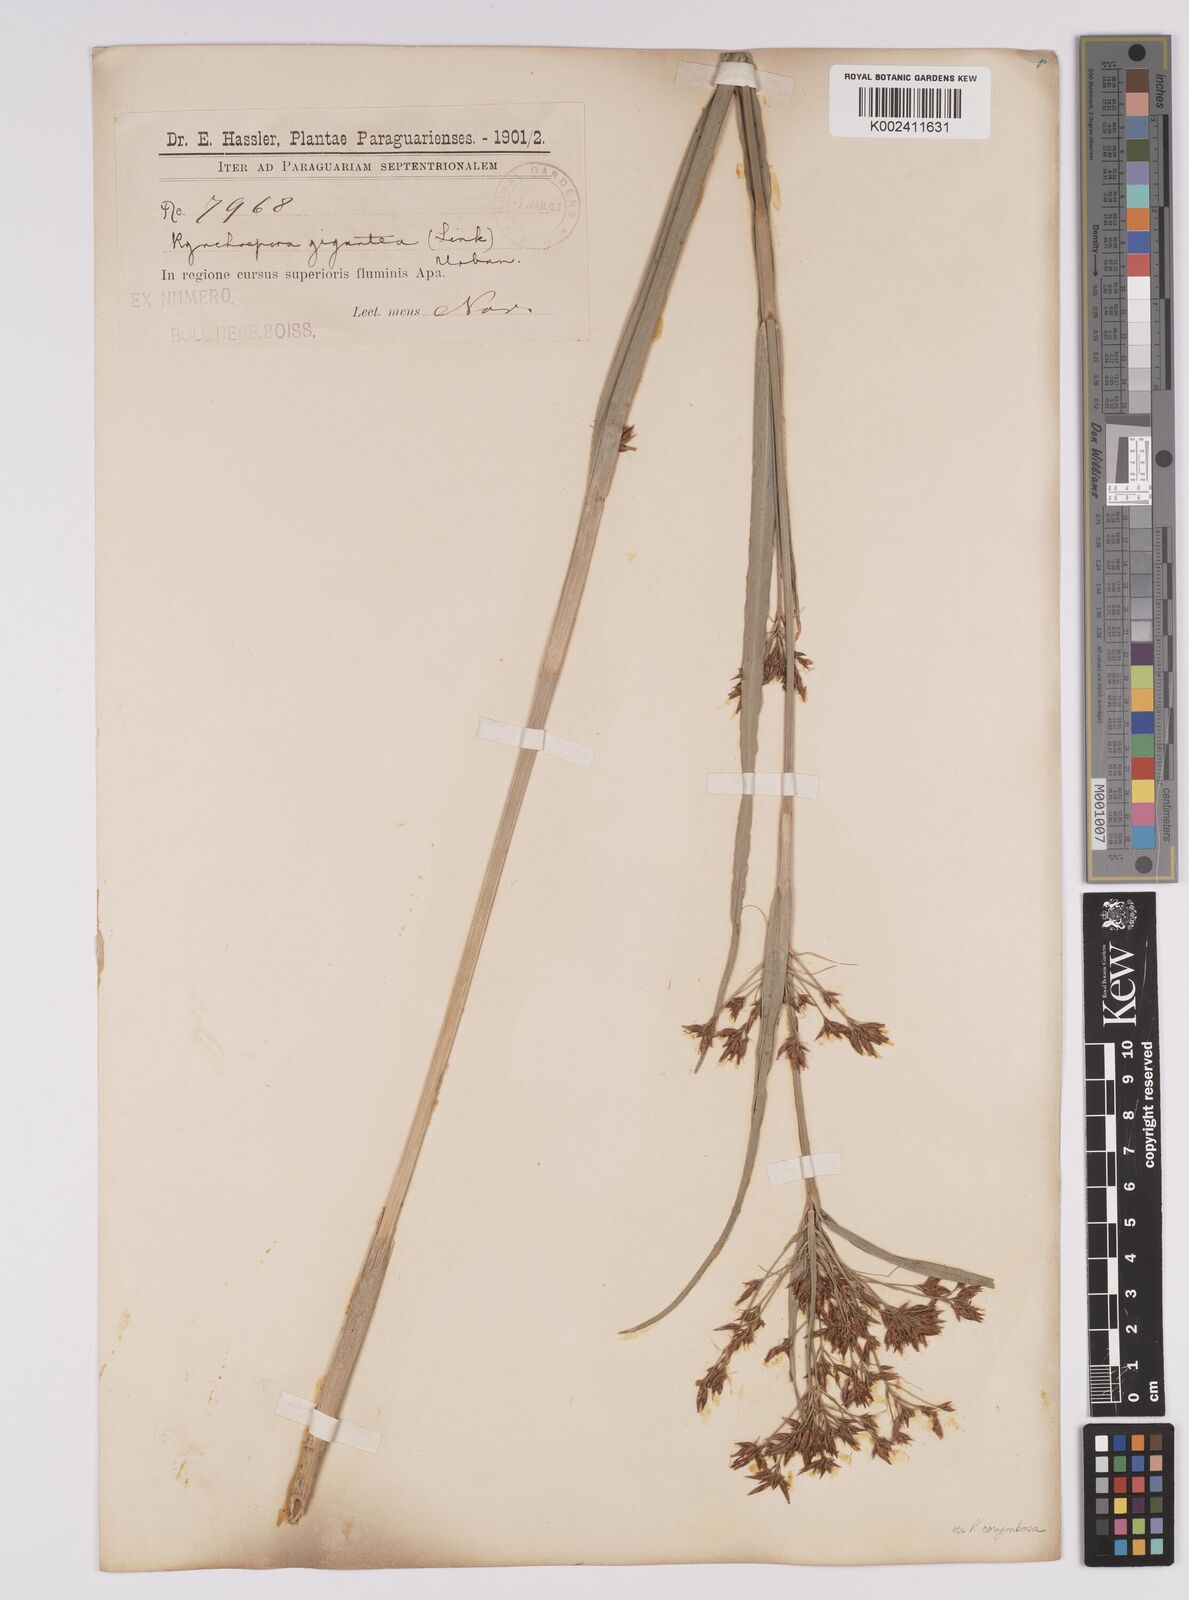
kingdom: Plantae
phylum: Tracheophyta
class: Liliopsida
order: Poales
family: Cyperaceae
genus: Rhynchospora
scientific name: Rhynchospora gigantea
